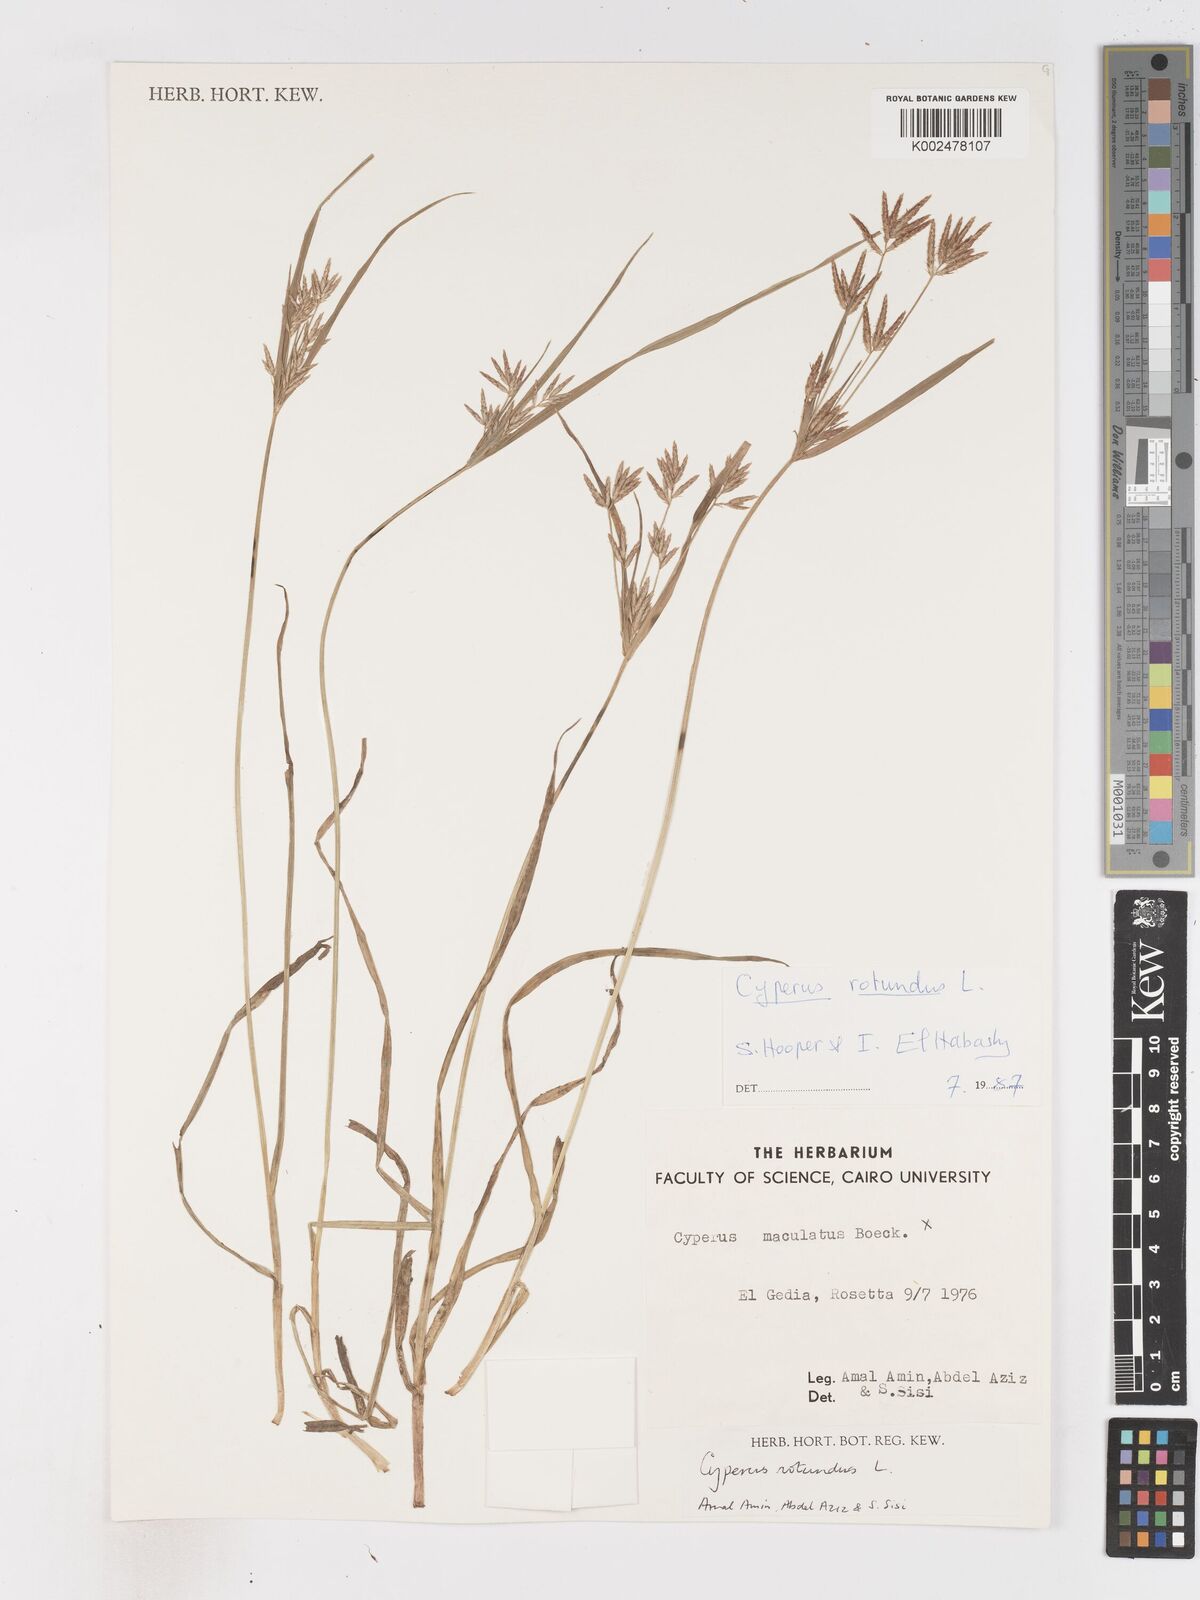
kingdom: Plantae
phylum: Tracheophyta
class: Liliopsida
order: Poales
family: Cyperaceae
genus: Cyperus
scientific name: Cyperus rotundus
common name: Nutgrass
